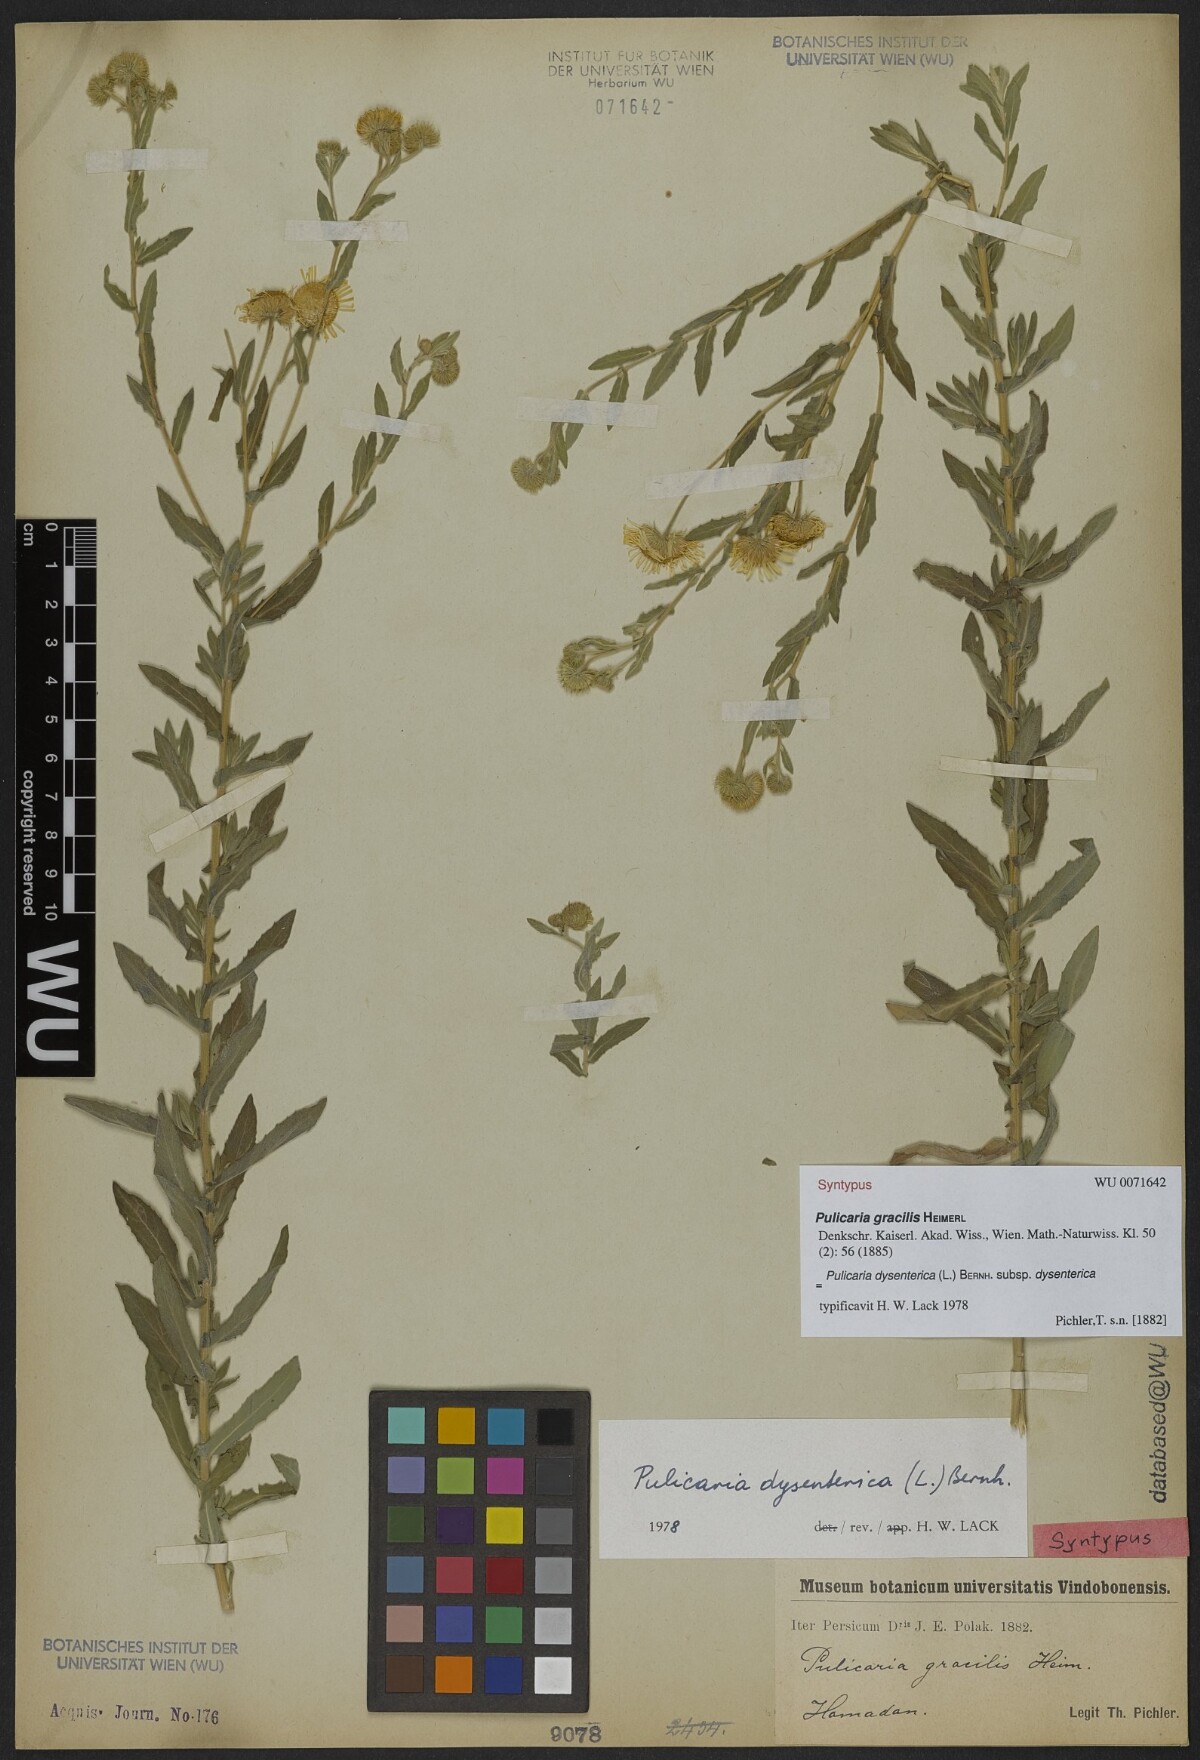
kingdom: Plantae
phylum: Tracheophyta
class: Magnoliopsida
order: Asterales
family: Asteraceae
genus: Pulicaria
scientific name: Pulicaria dysenterica
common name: Common fleabane
